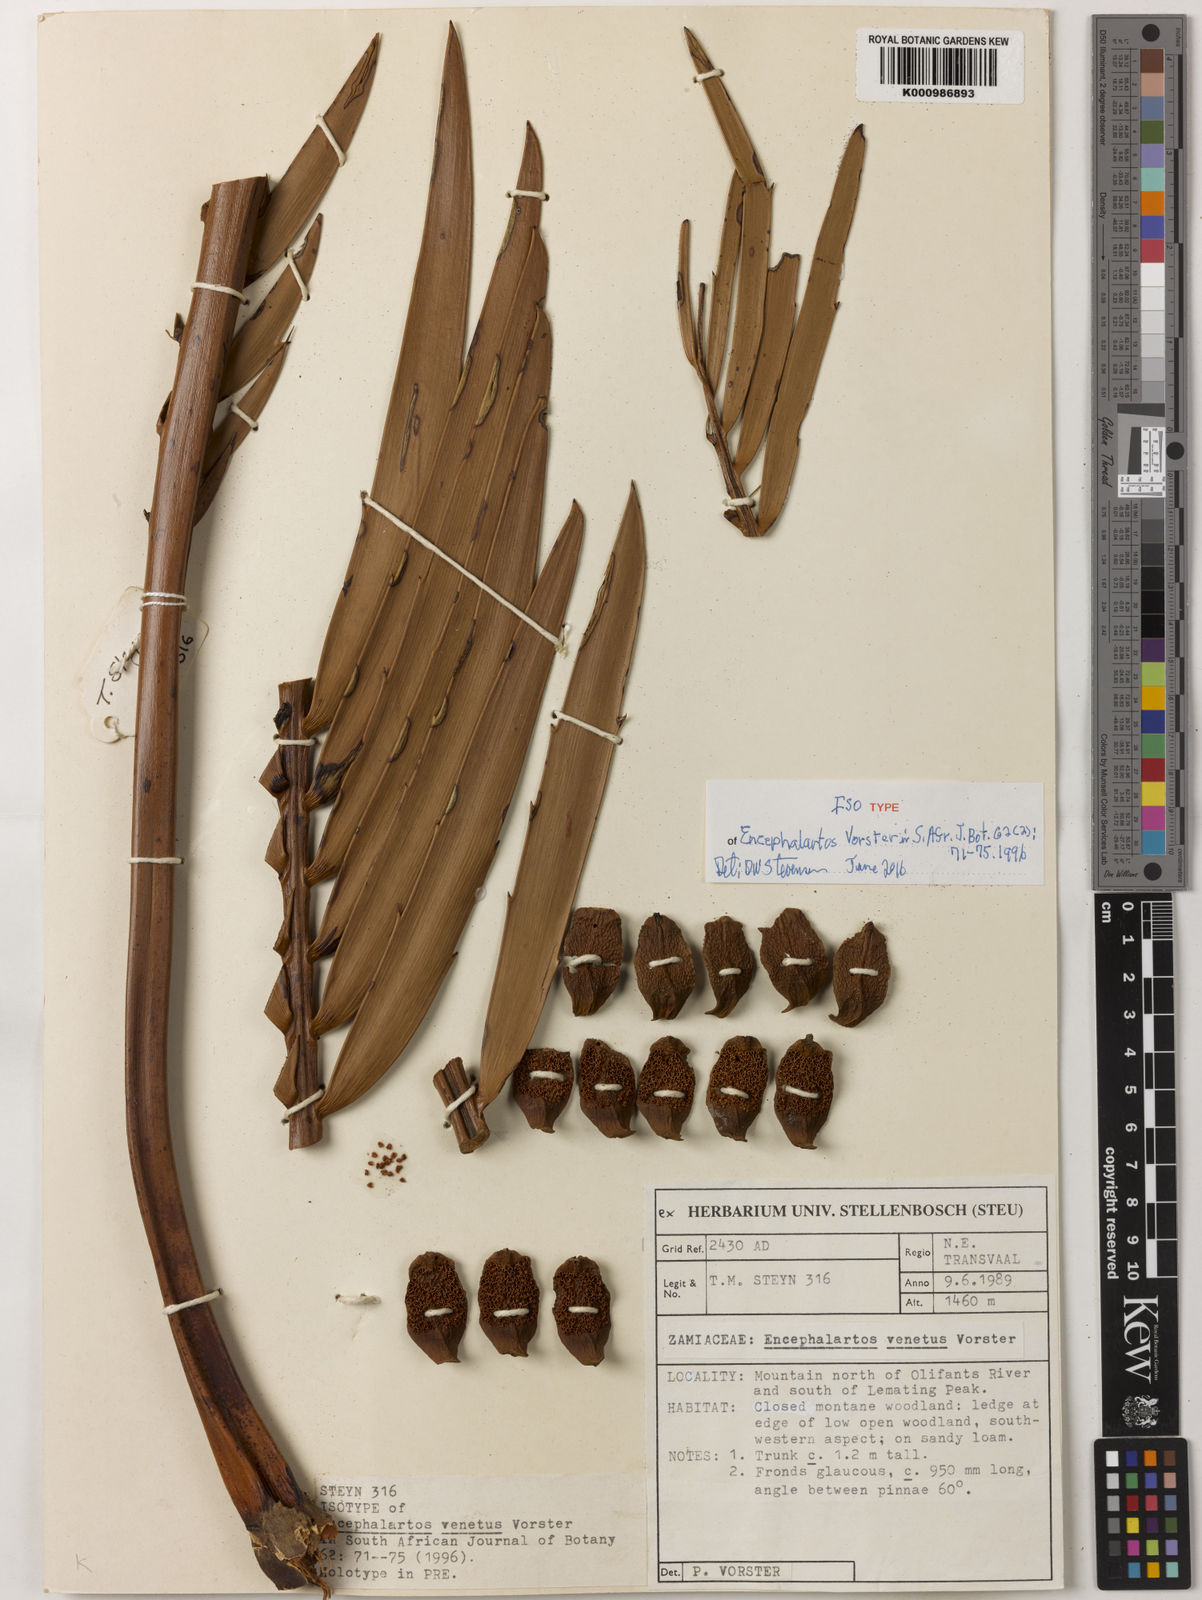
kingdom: Plantae
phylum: Tracheophyta
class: Cycadopsida
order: Cycadales
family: Zamiaceae
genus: Encephalartos
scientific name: Encephalartos nubimontanus
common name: Blue cycad
